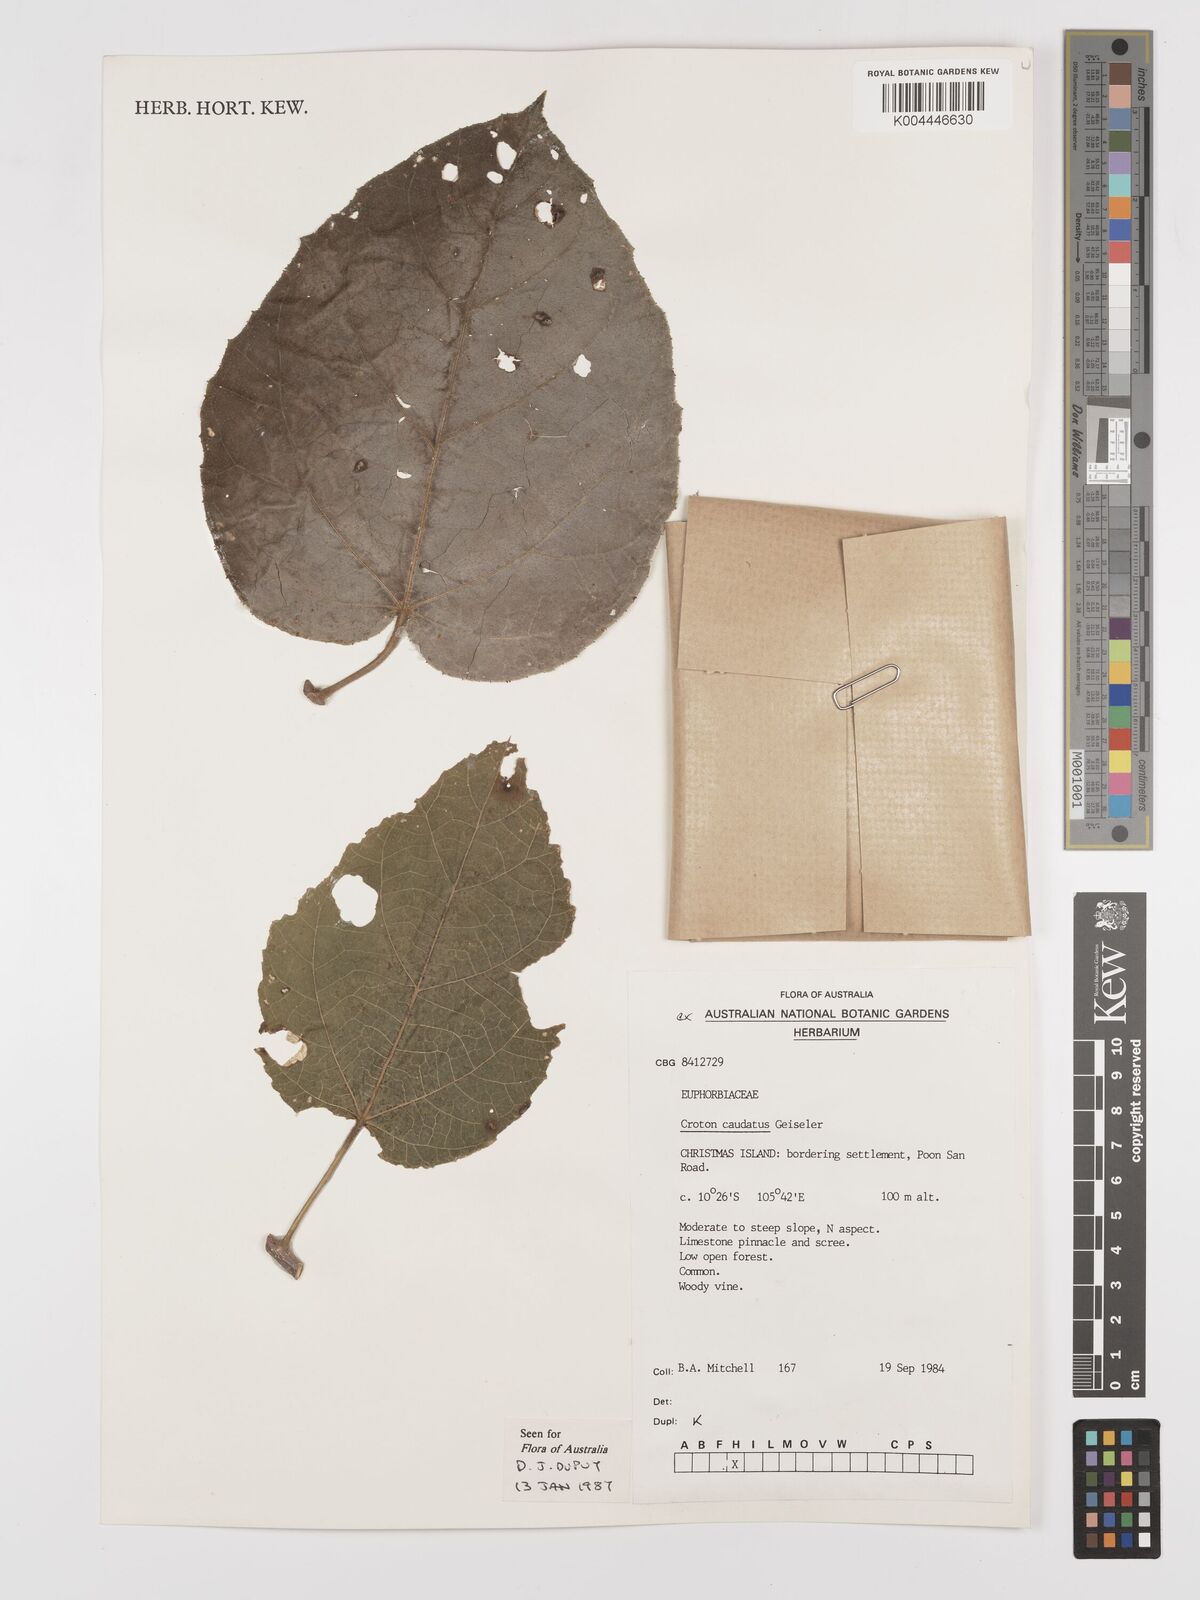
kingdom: Plantae
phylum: Tracheophyta
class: Magnoliopsida
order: Malpighiales
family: Euphorbiaceae
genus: Croton
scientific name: Croton caudatus
